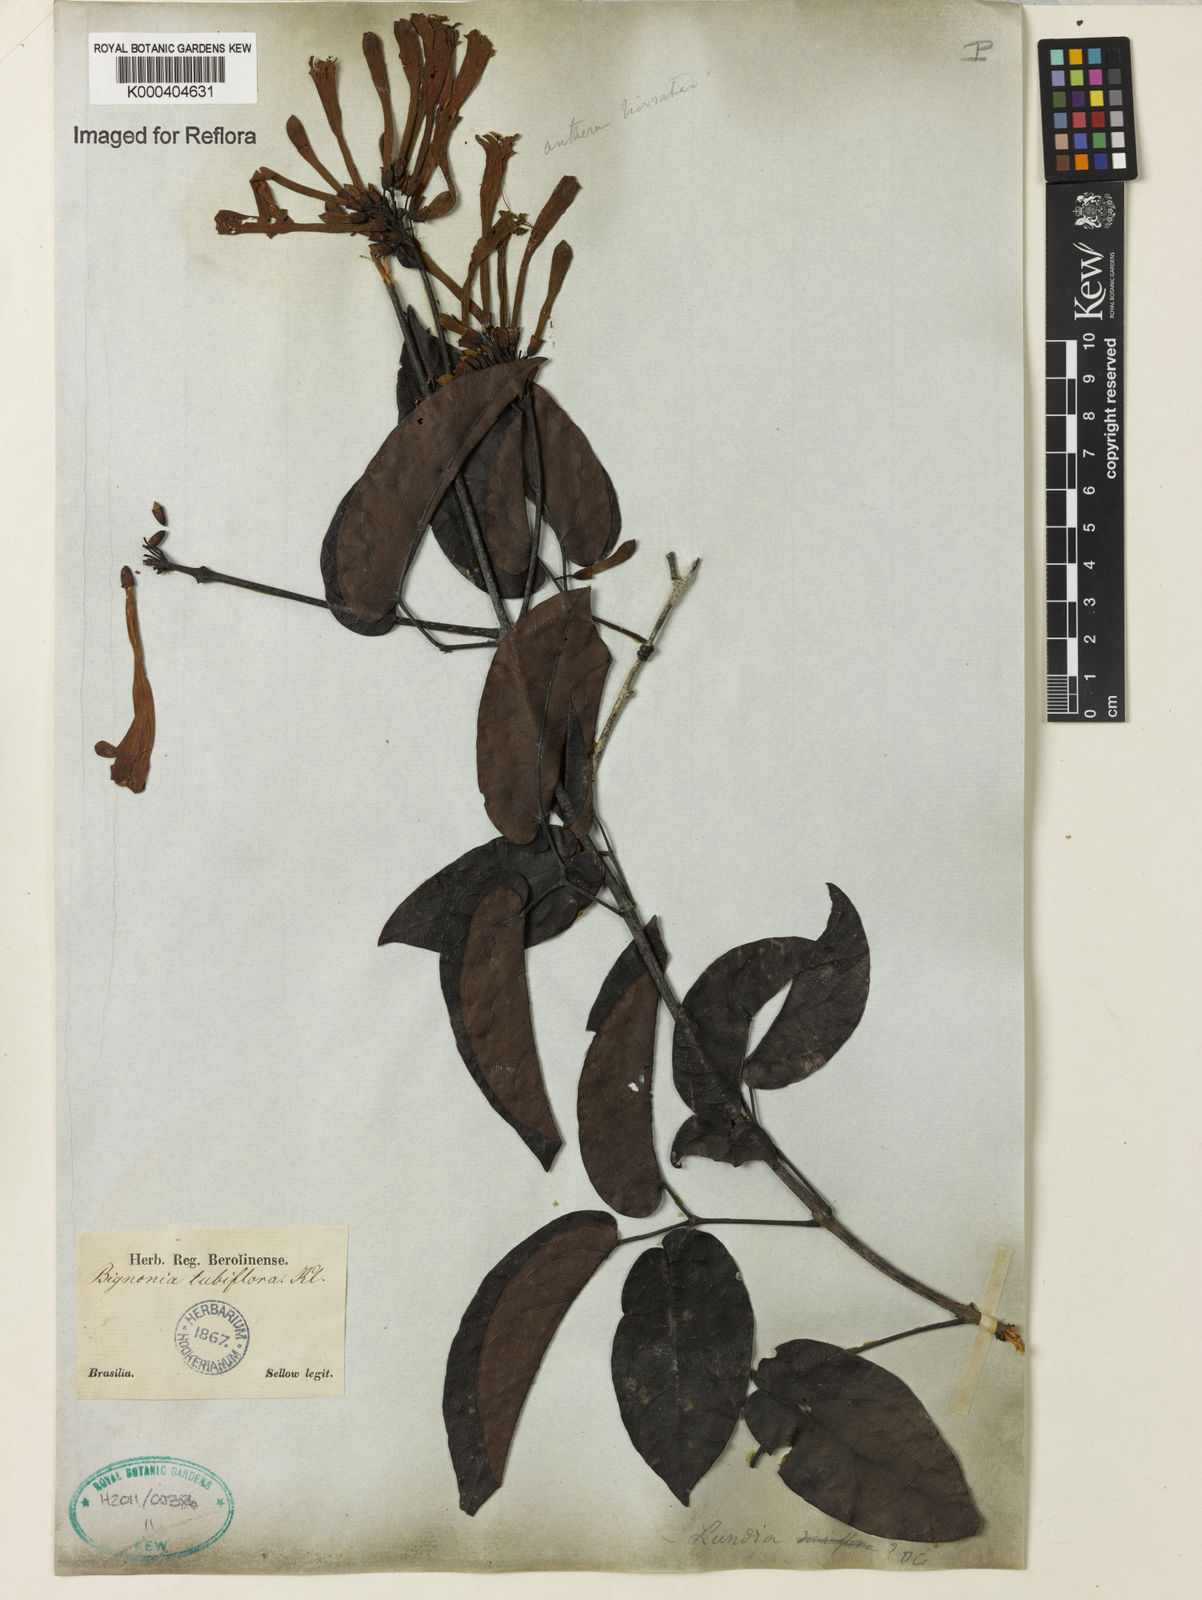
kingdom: Plantae
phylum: Tracheophyta
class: Magnoliopsida
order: Lamiales
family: Bignoniaceae
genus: Lundia
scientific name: Lundia
